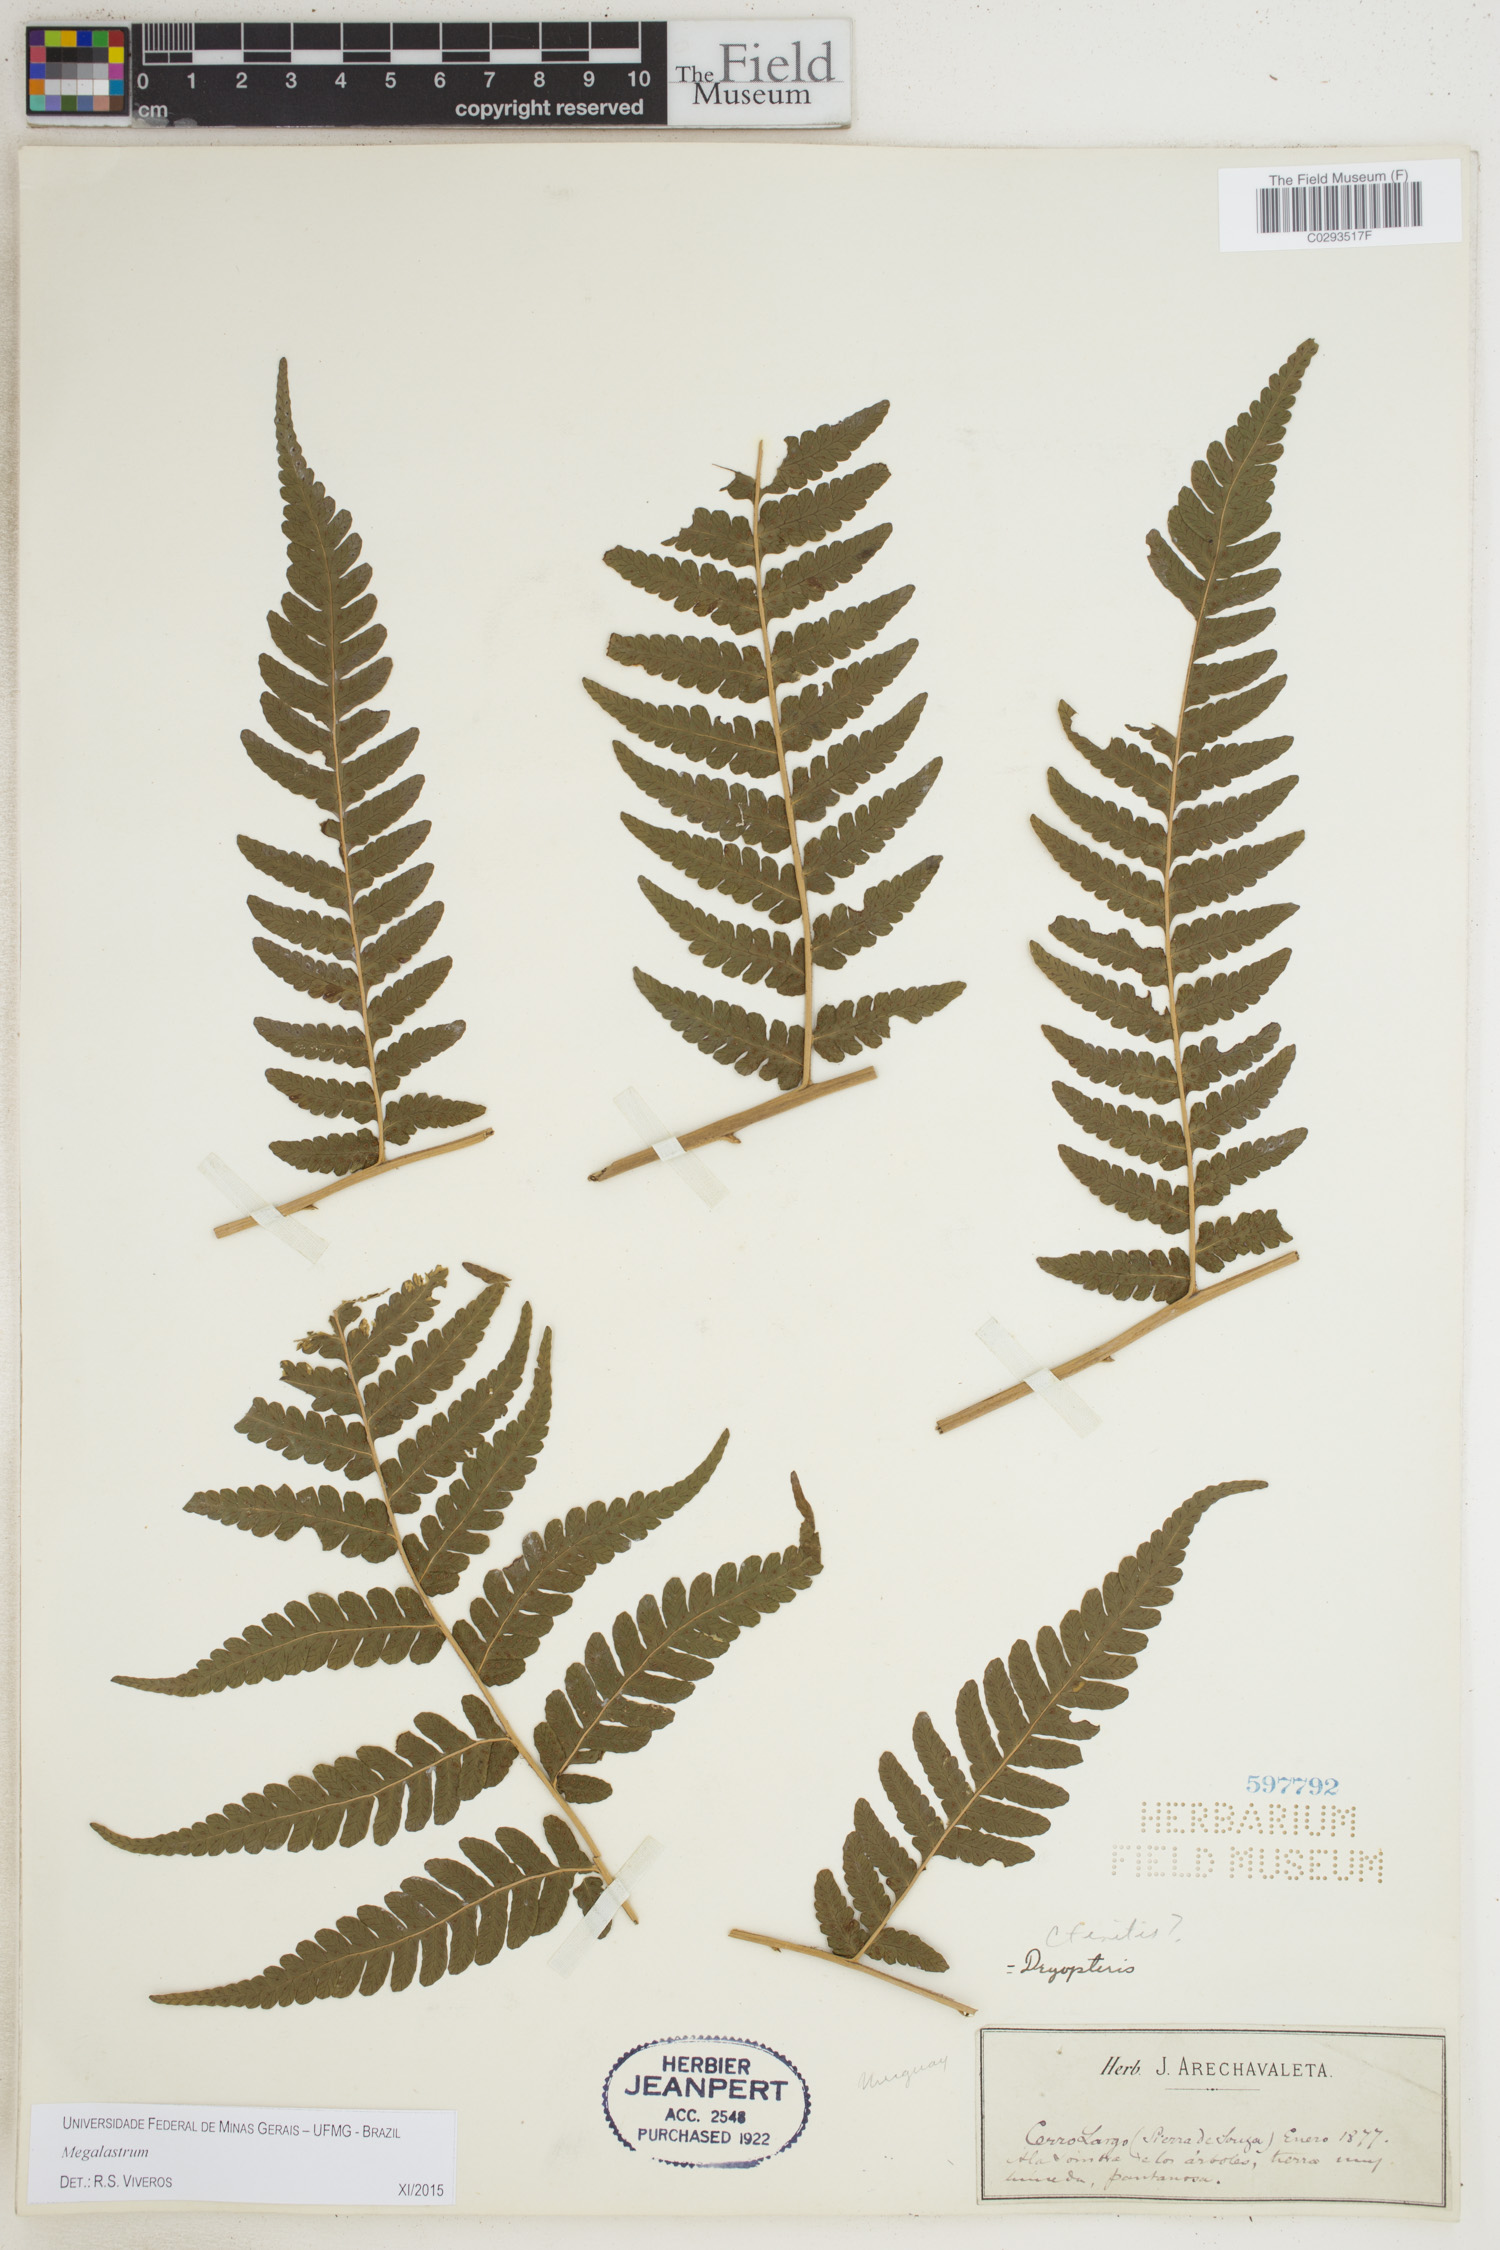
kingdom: Plantae
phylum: Tracheophyta
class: Polypodiopsida
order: Polypodiales
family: Dryopteridaceae
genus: Megalastrum
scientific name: Megalastrum
